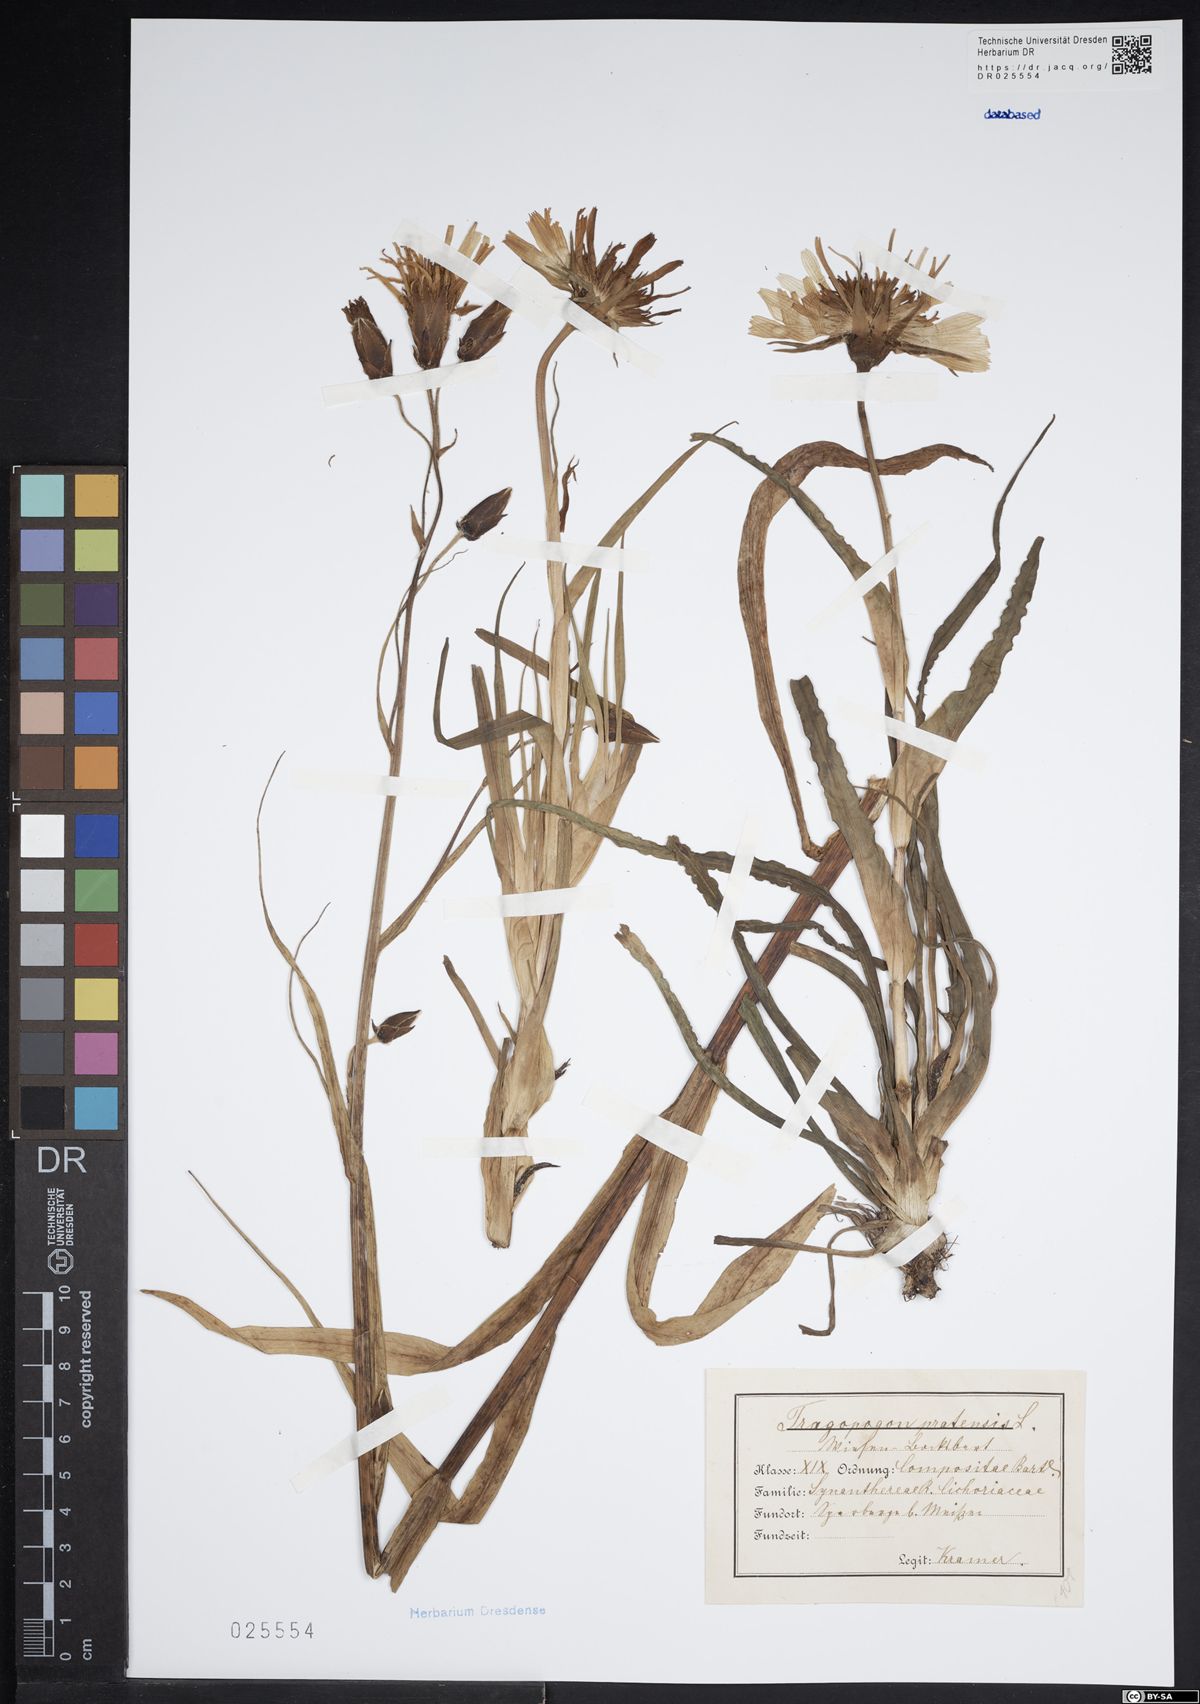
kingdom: Plantae
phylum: Tracheophyta
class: Magnoliopsida
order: Asterales
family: Asteraceae
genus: Tragopogon
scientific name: Tragopogon pratensis
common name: Goat's-beard
